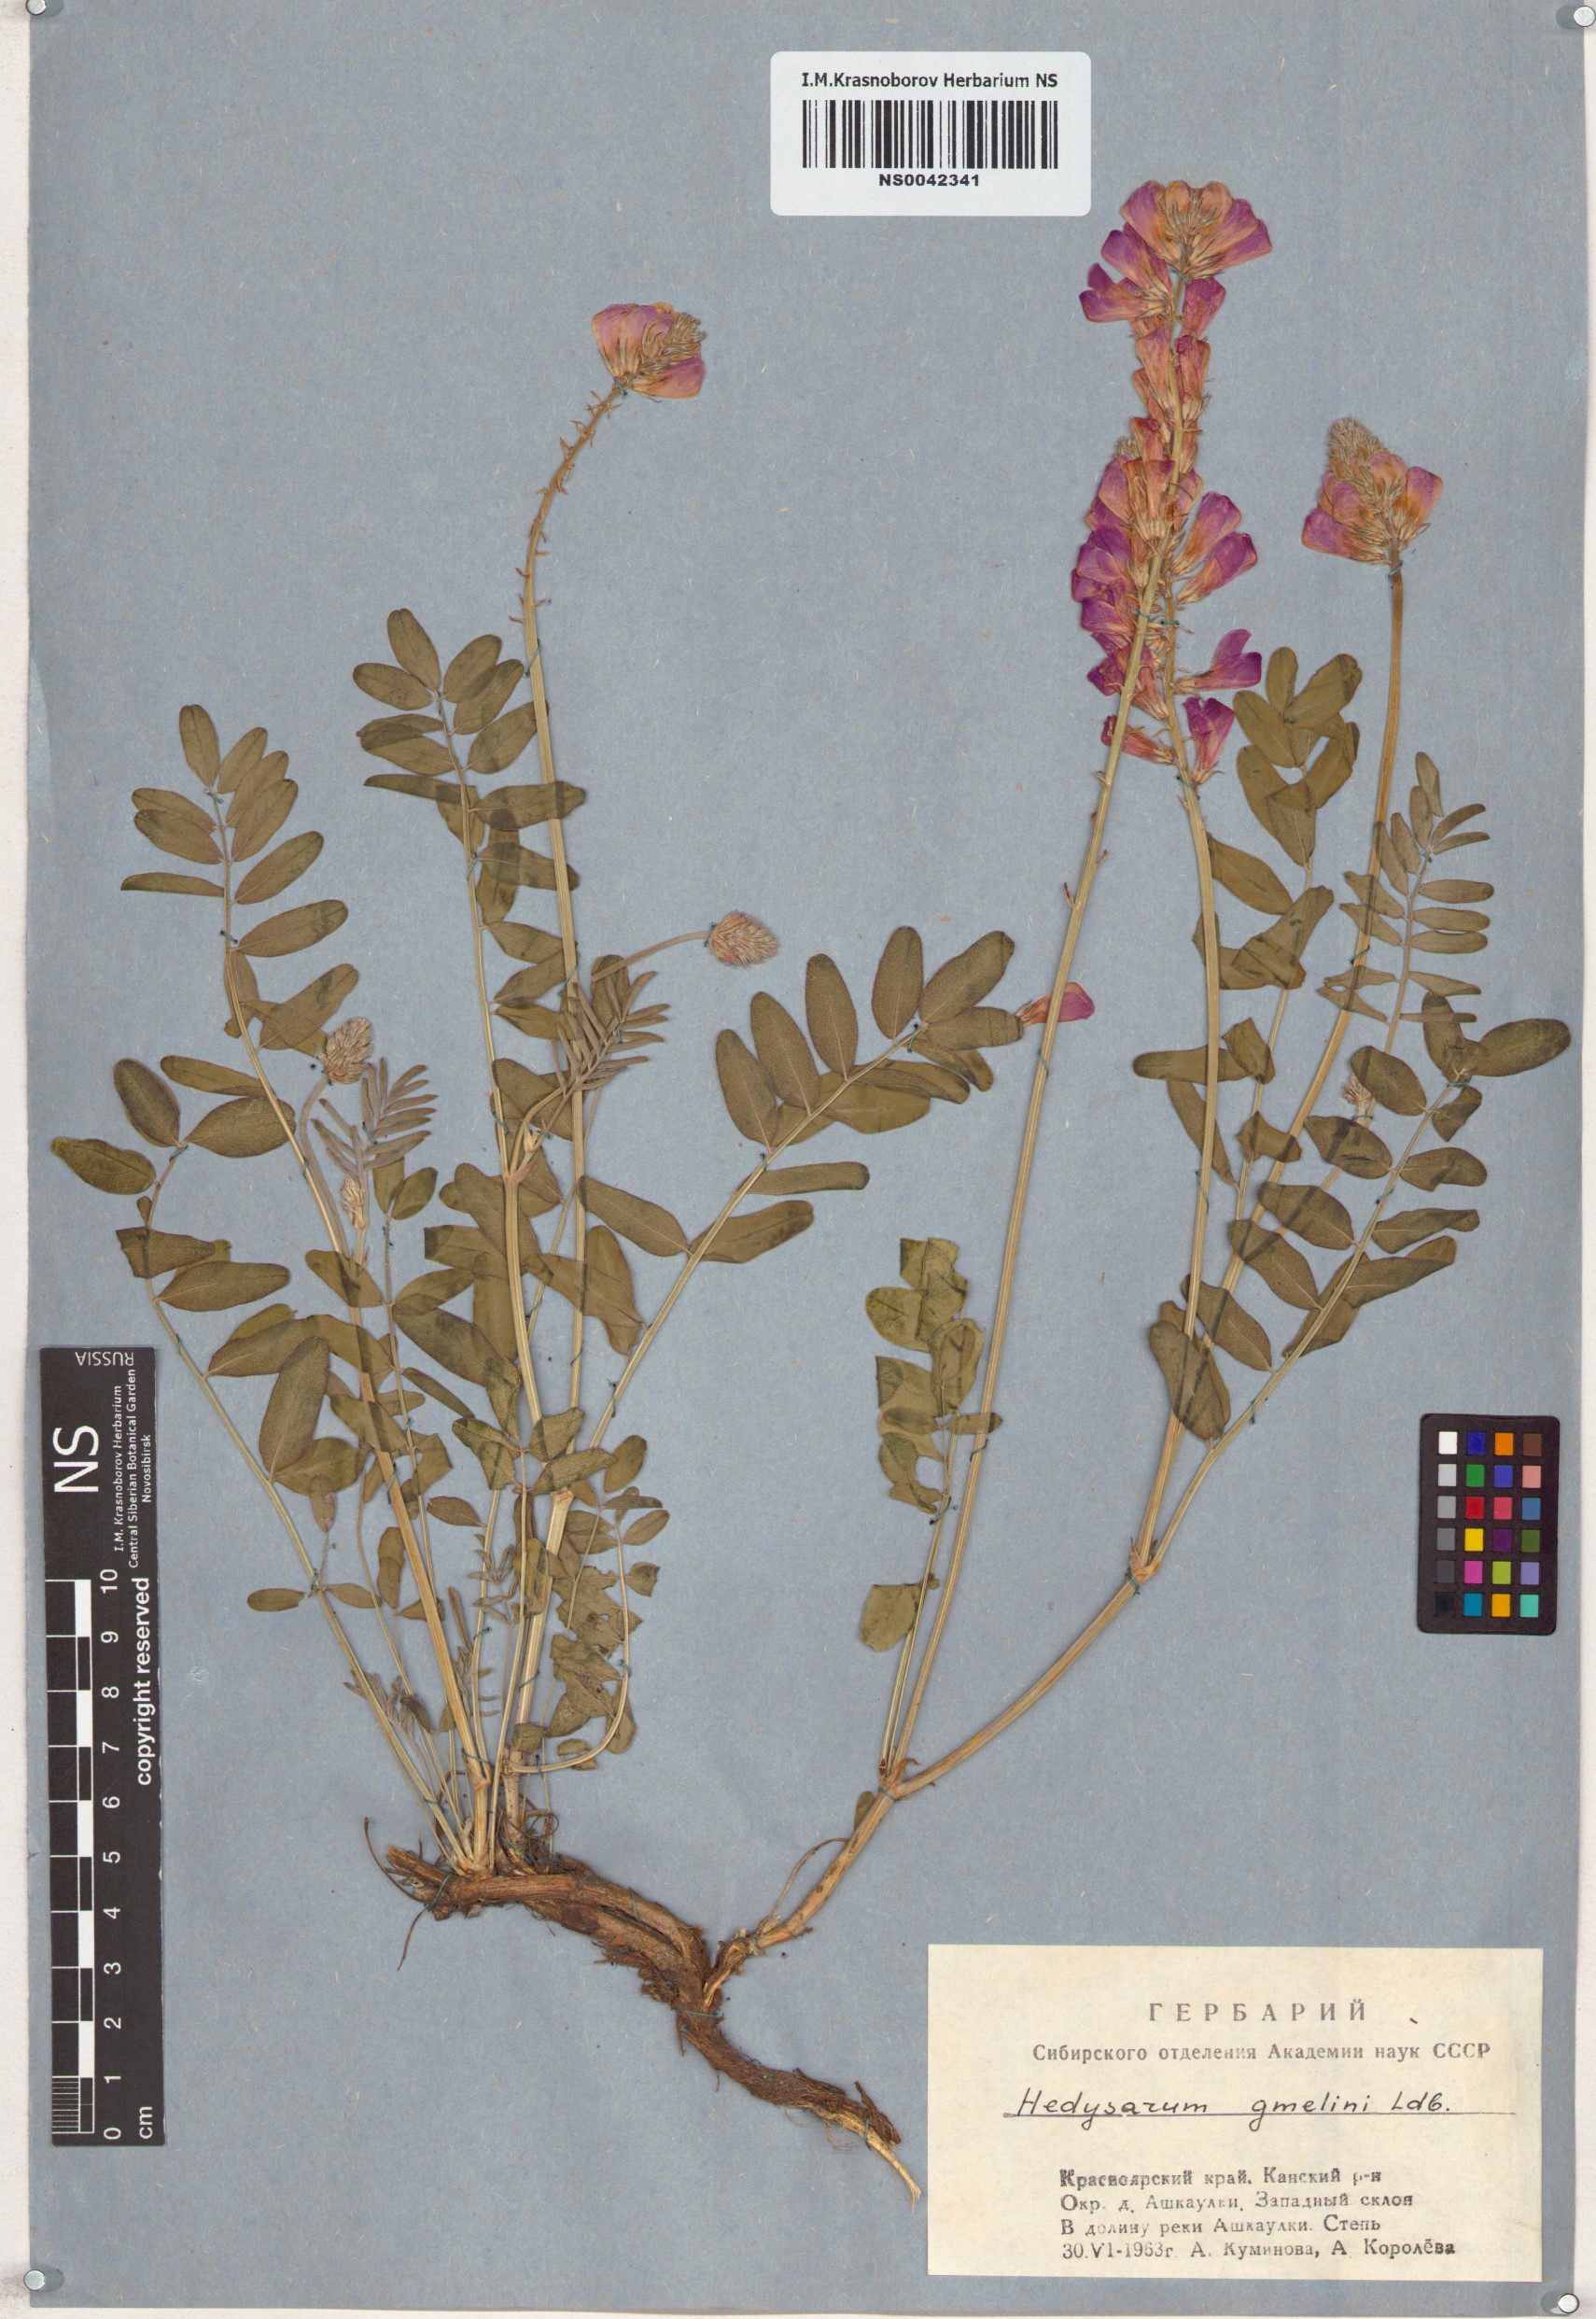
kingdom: Plantae
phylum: Tracheophyta
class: Magnoliopsida
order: Fabales
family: Fabaceae
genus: Hedysarum
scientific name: Hedysarum gmelinii
